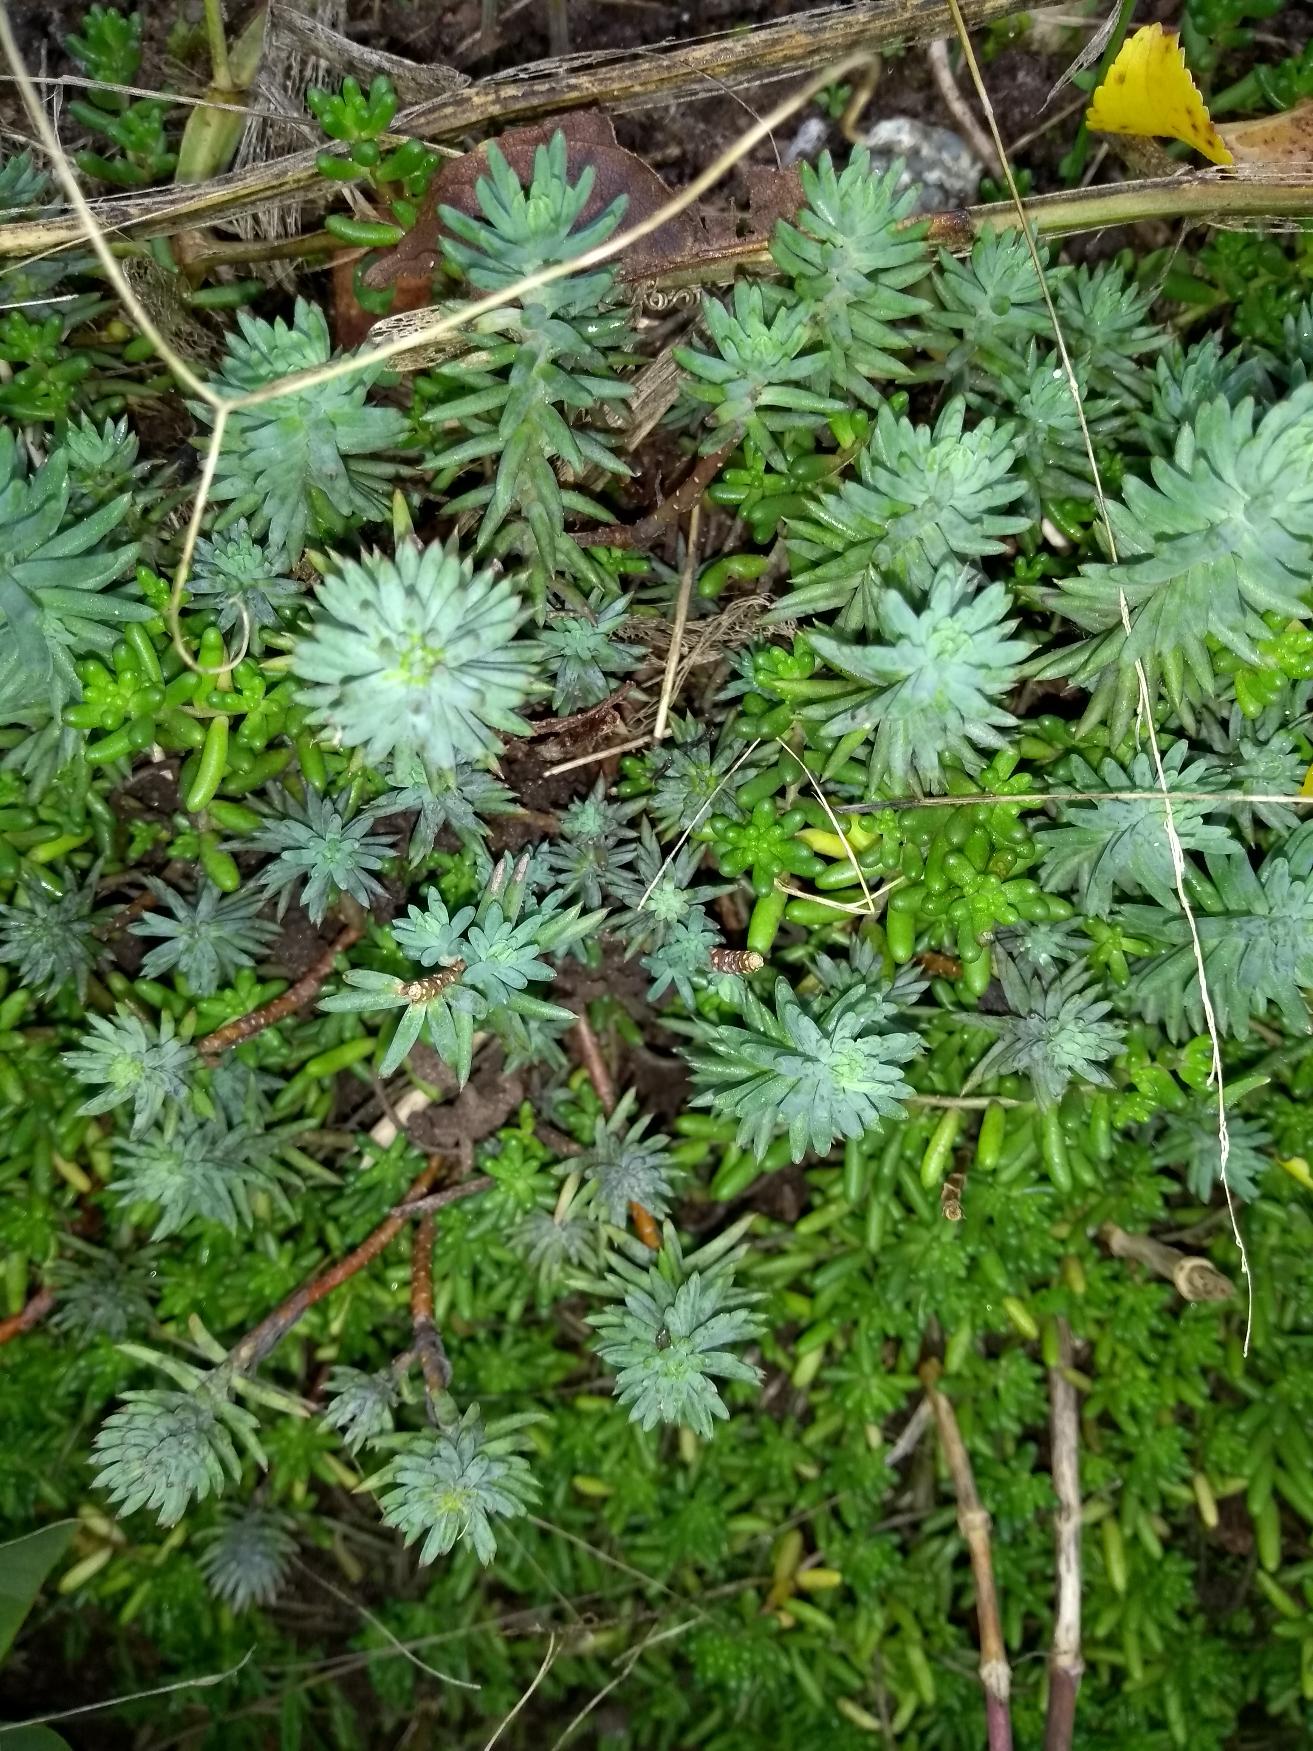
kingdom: Plantae
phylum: Tracheophyta
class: Magnoliopsida
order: Saxifragales
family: Crassulaceae
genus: Petrosedum
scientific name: Petrosedum rupestre
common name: Bjerg-stenurt
